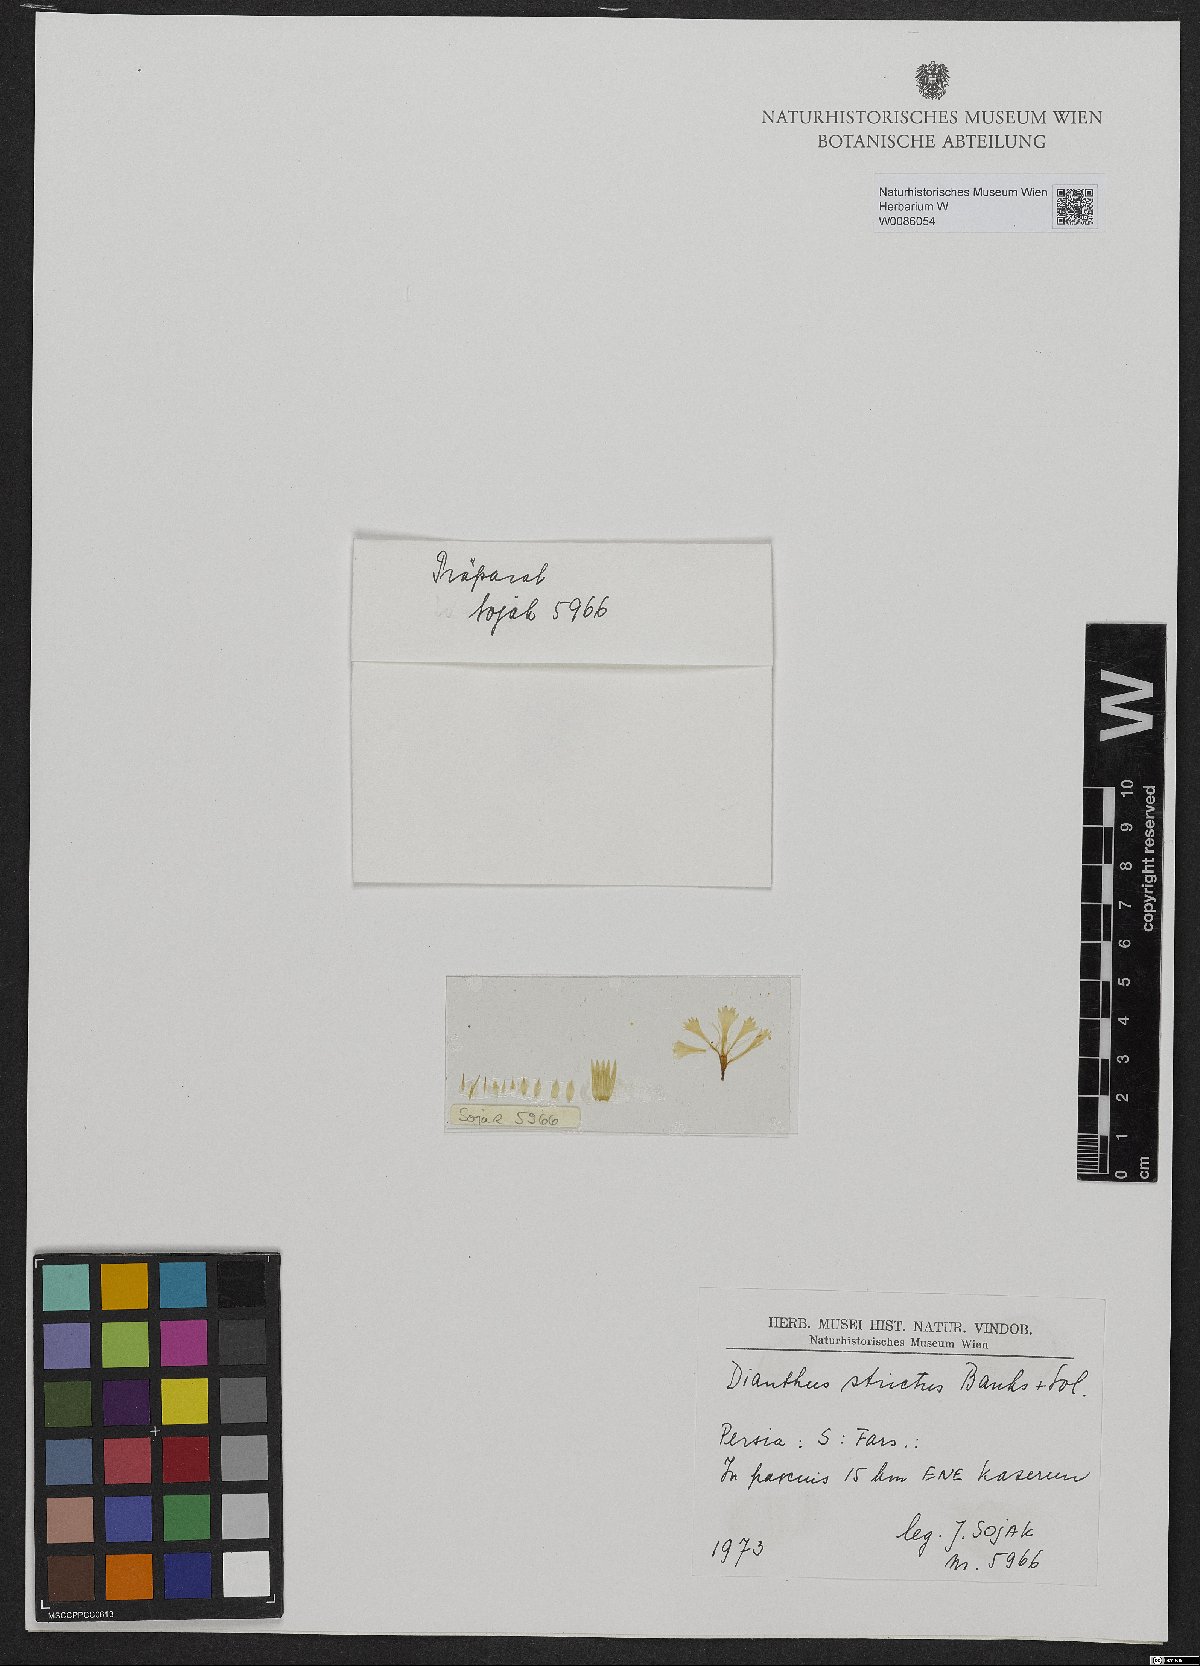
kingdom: Plantae
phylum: Tracheophyta
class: Magnoliopsida
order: Caryophyllales
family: Caryophyllaceae
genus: Dianthus
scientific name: Dianthus strictus
